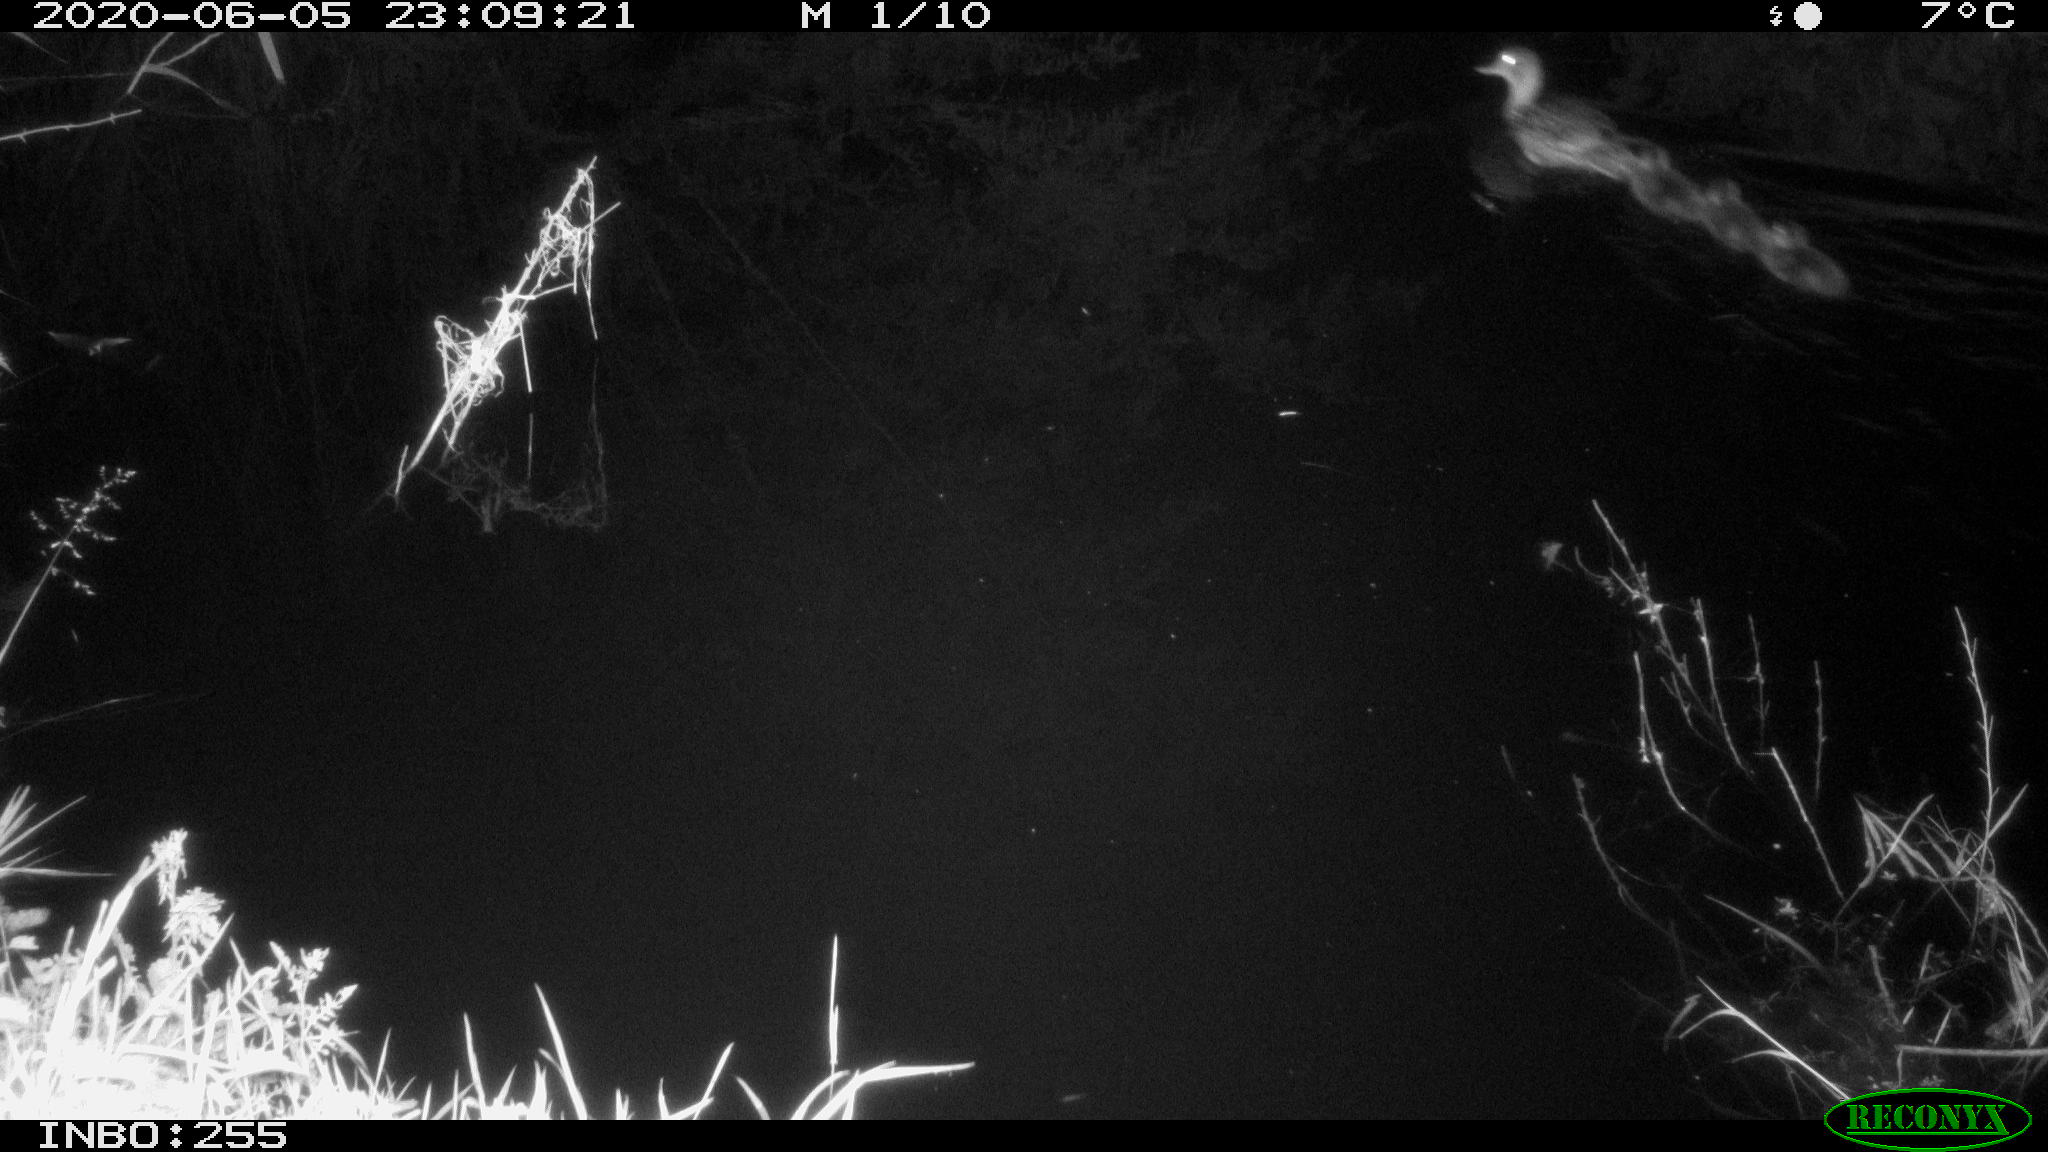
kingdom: Animalia
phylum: Chordata
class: Aves
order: Anseriformes
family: Anatidae
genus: Anas
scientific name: Anas platyrhynchos
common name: Mallard
